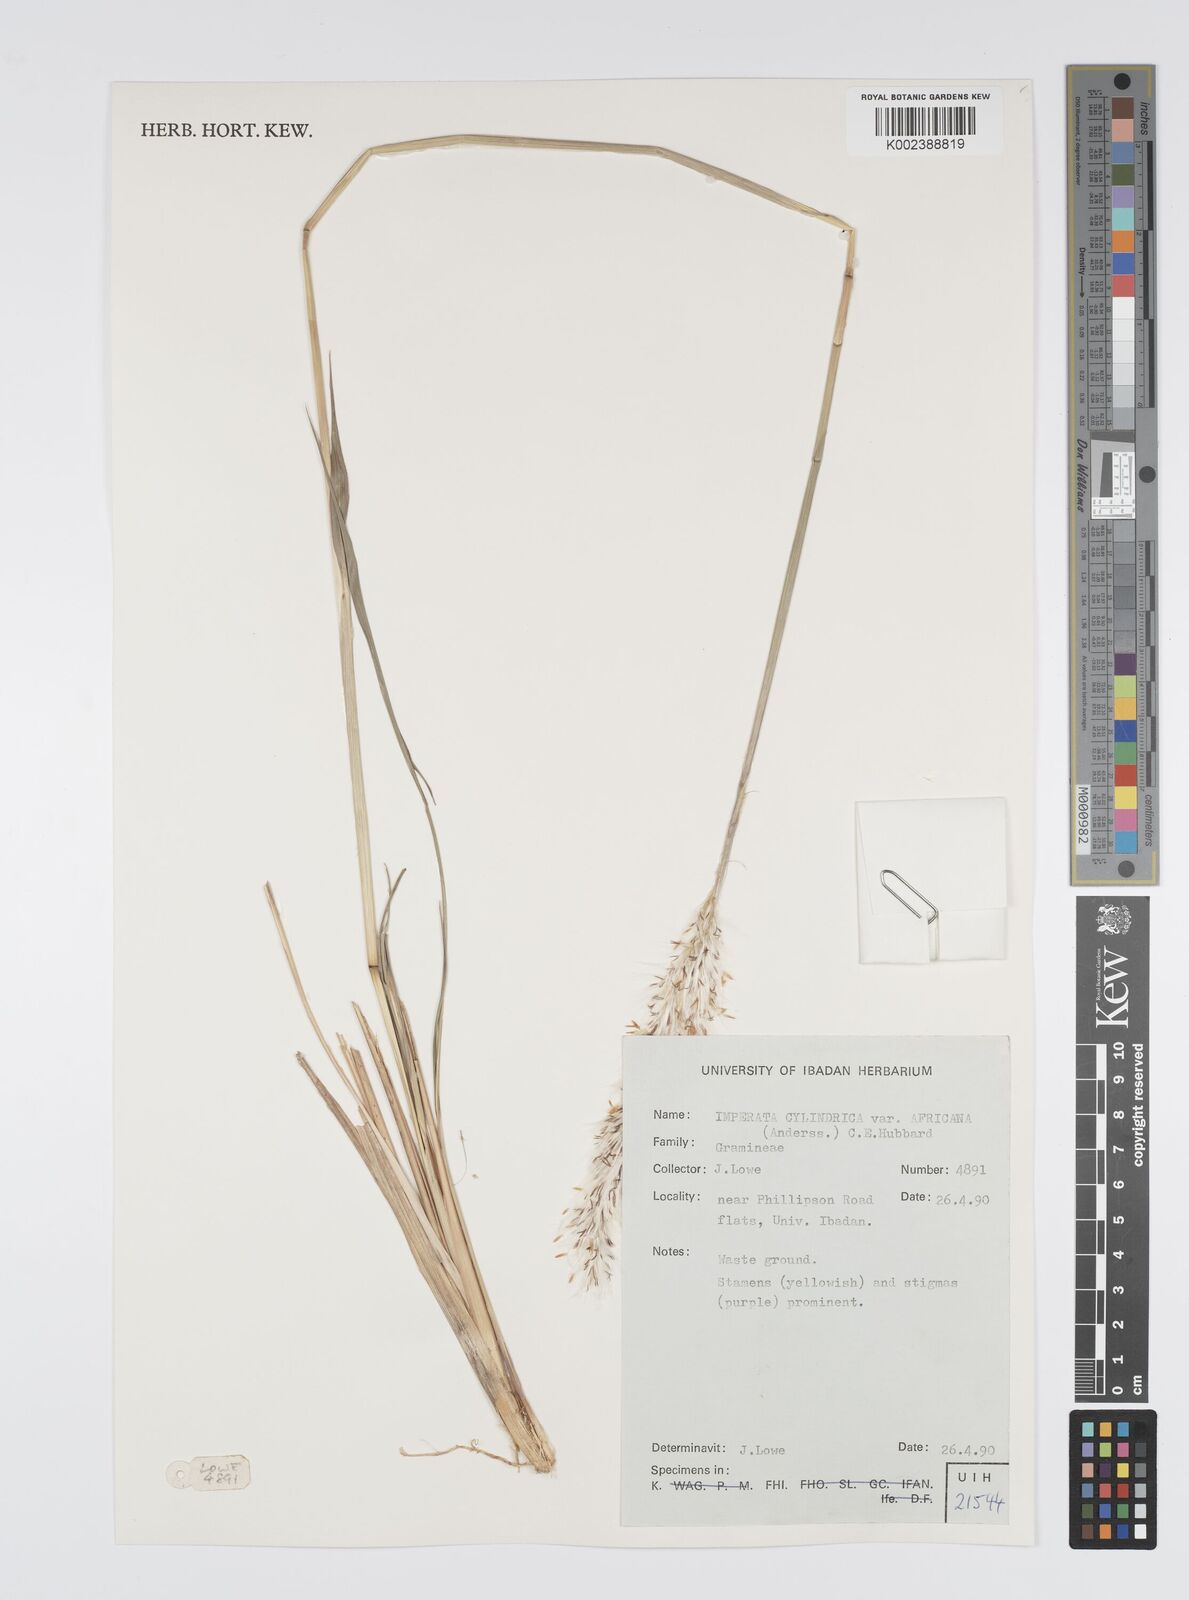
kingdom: Plantae
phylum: Tracheophyta
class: Liliopsida
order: Poales
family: Poaceae
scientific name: Poaceae
